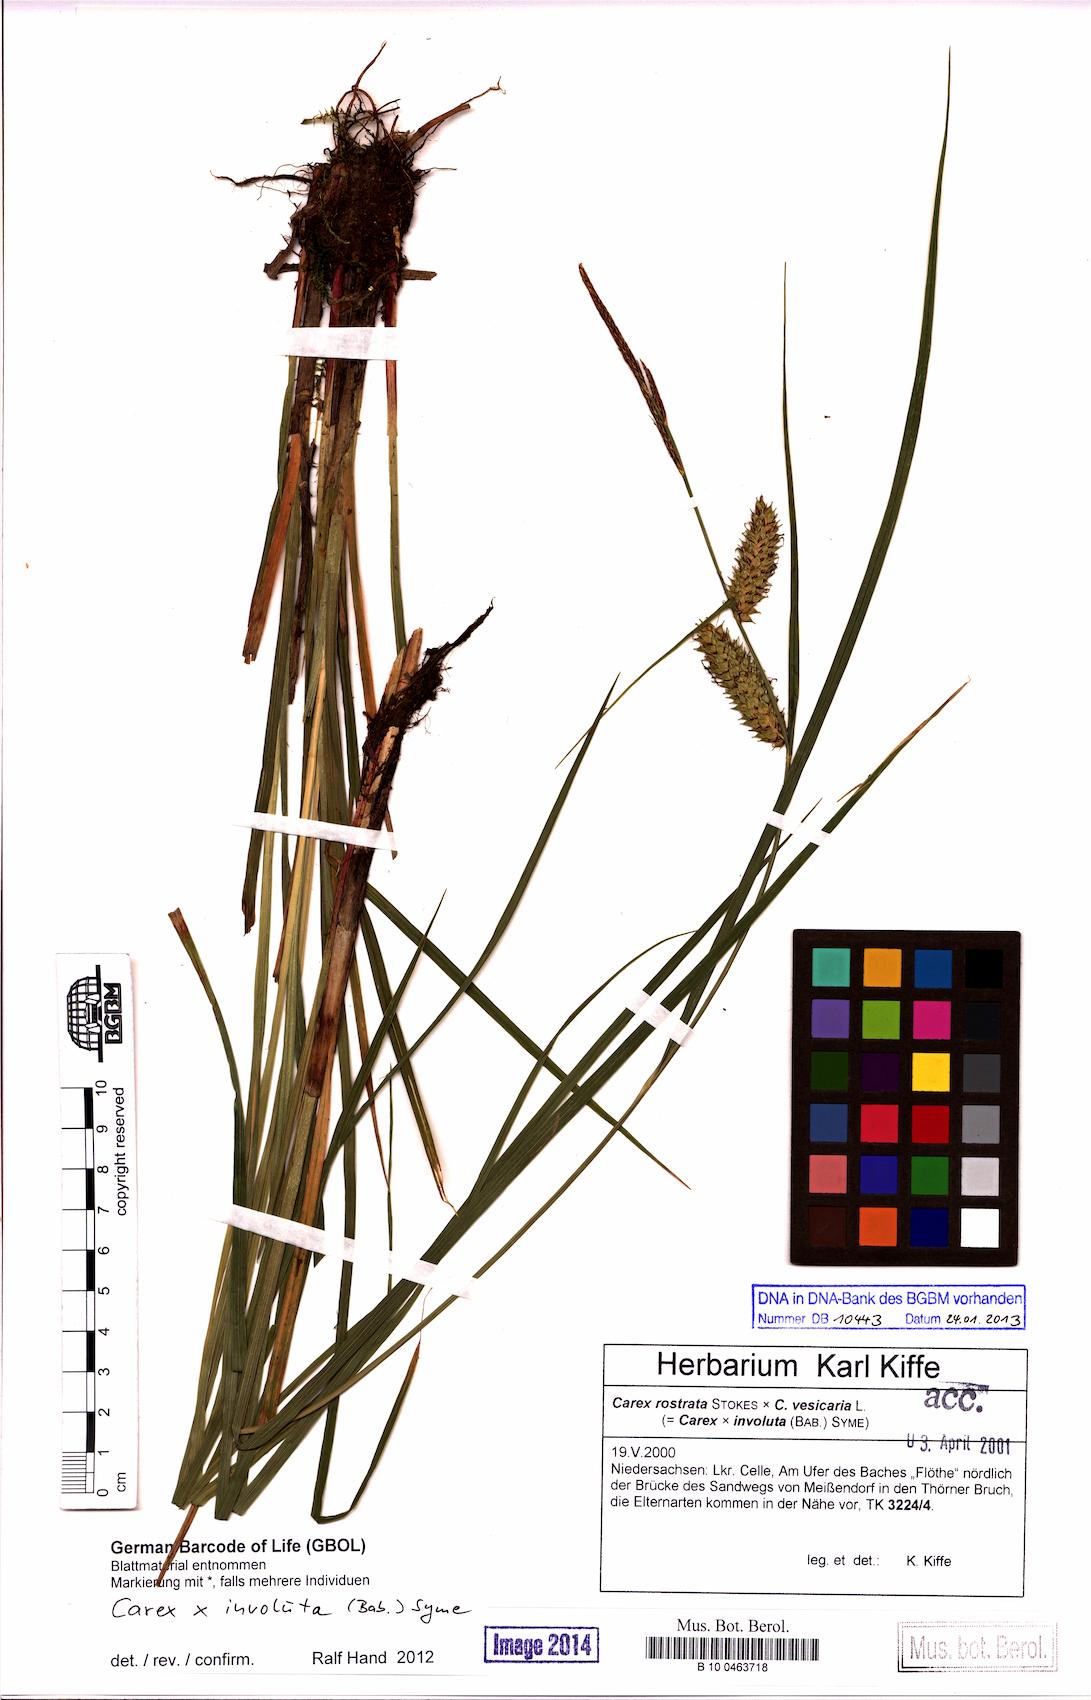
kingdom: Plantae
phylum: Tracheophyta
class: Liliopsida
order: Poales
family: Cyperaceae
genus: Carex
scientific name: Carex involuta
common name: Pannewitz's sedge
